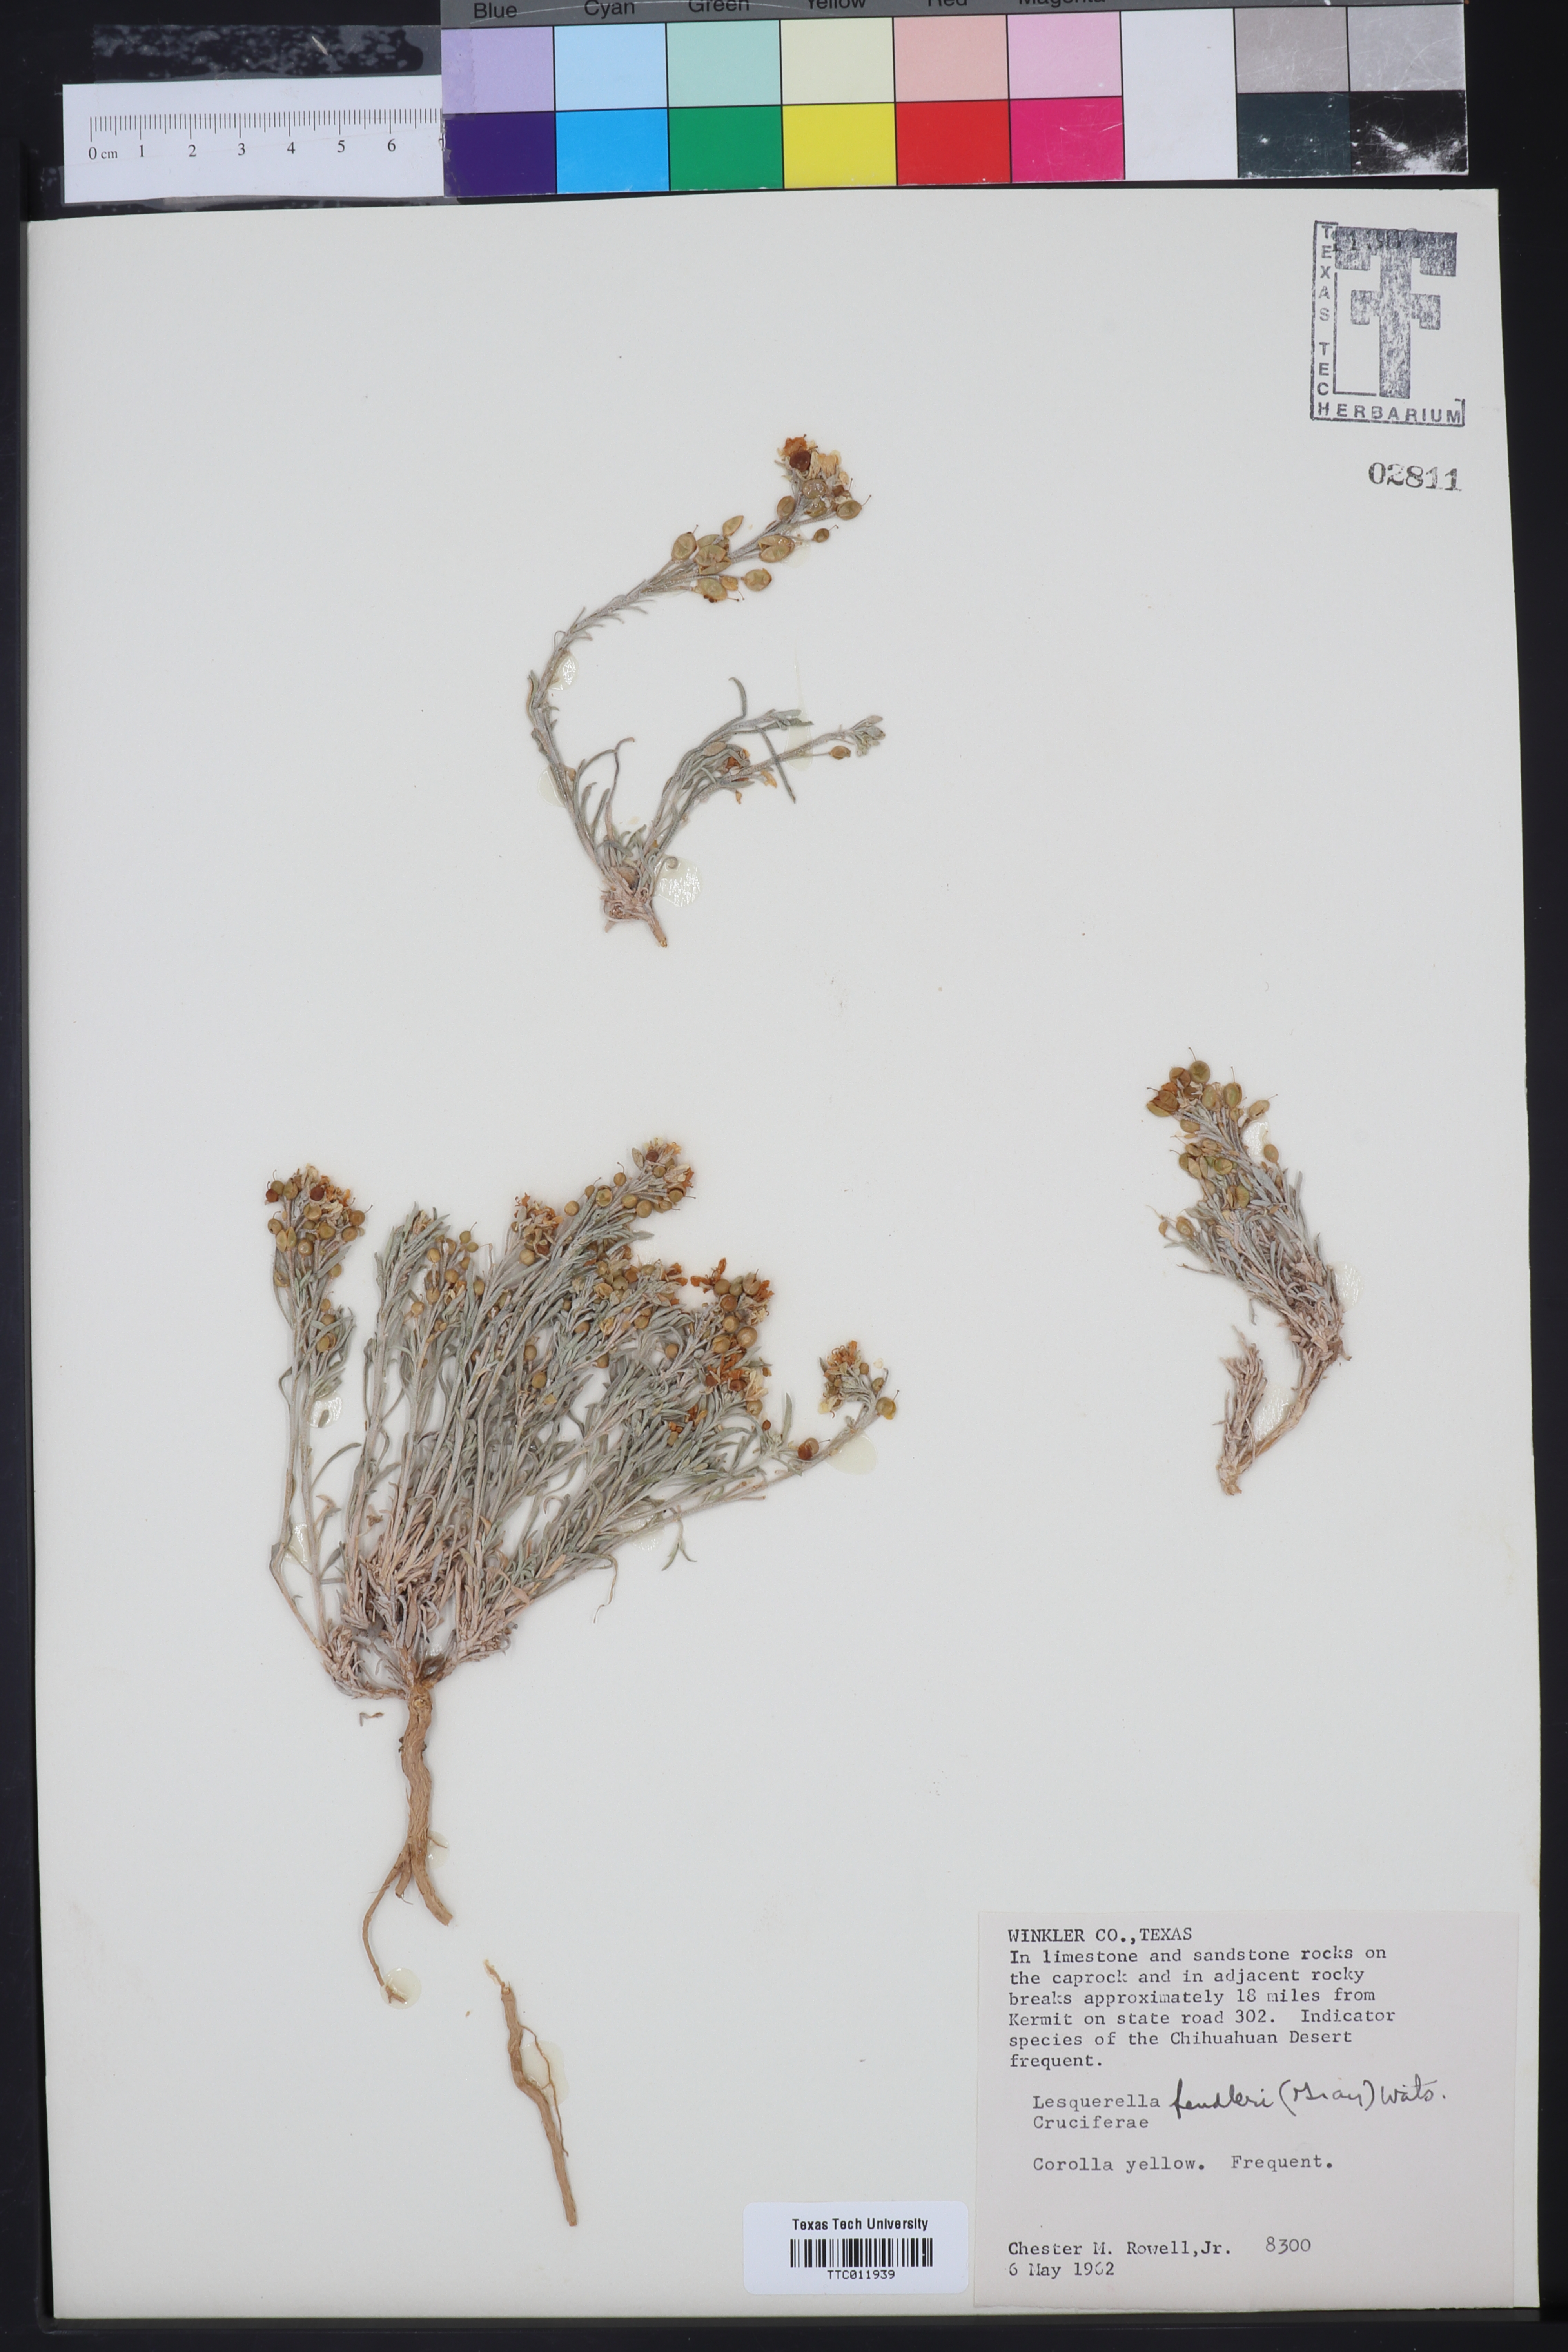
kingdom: Plantae
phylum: Tracheophyta
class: Magnoliopsida
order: Brassicales
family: Brassicaceae
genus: Physaria
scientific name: Physaria fendleri
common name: Fendler's bladderpod
